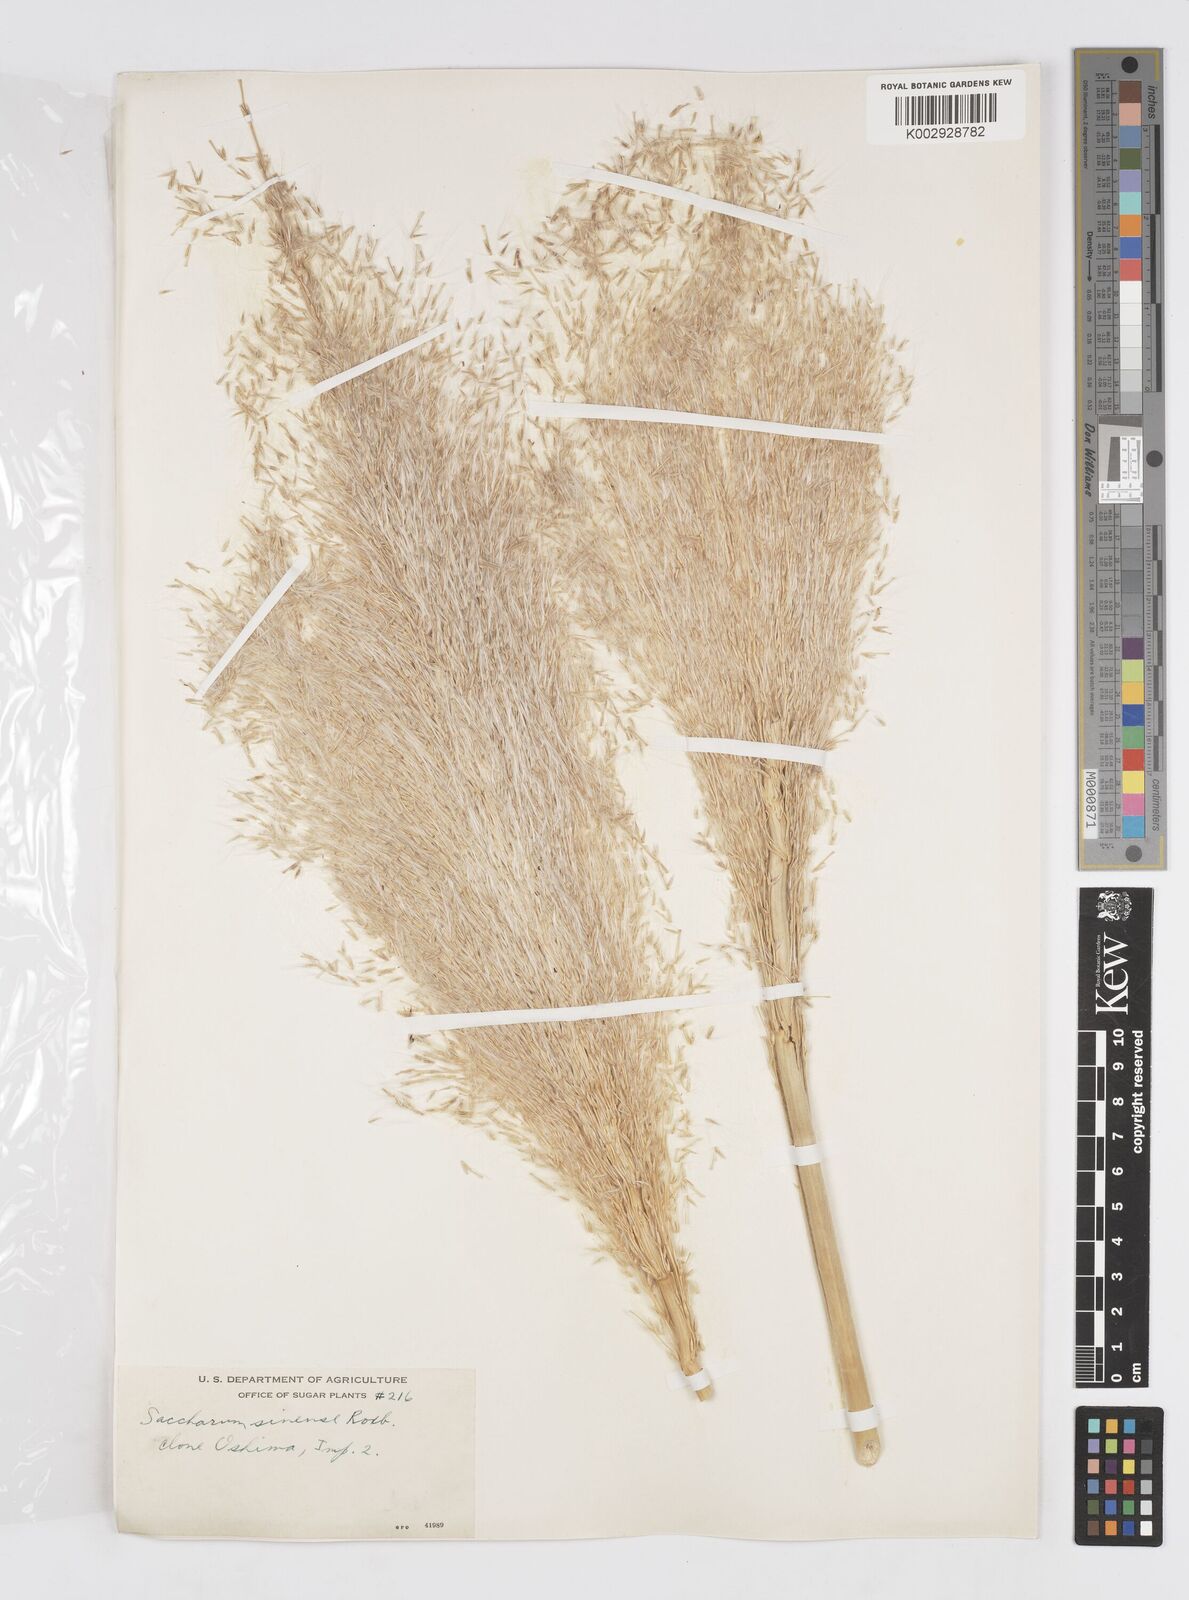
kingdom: Plantae
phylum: Tracheophyta
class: Liliopsida
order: Poales
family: Poaceae
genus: Saccharum
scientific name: Saccharum officinarum
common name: Sugarcane
